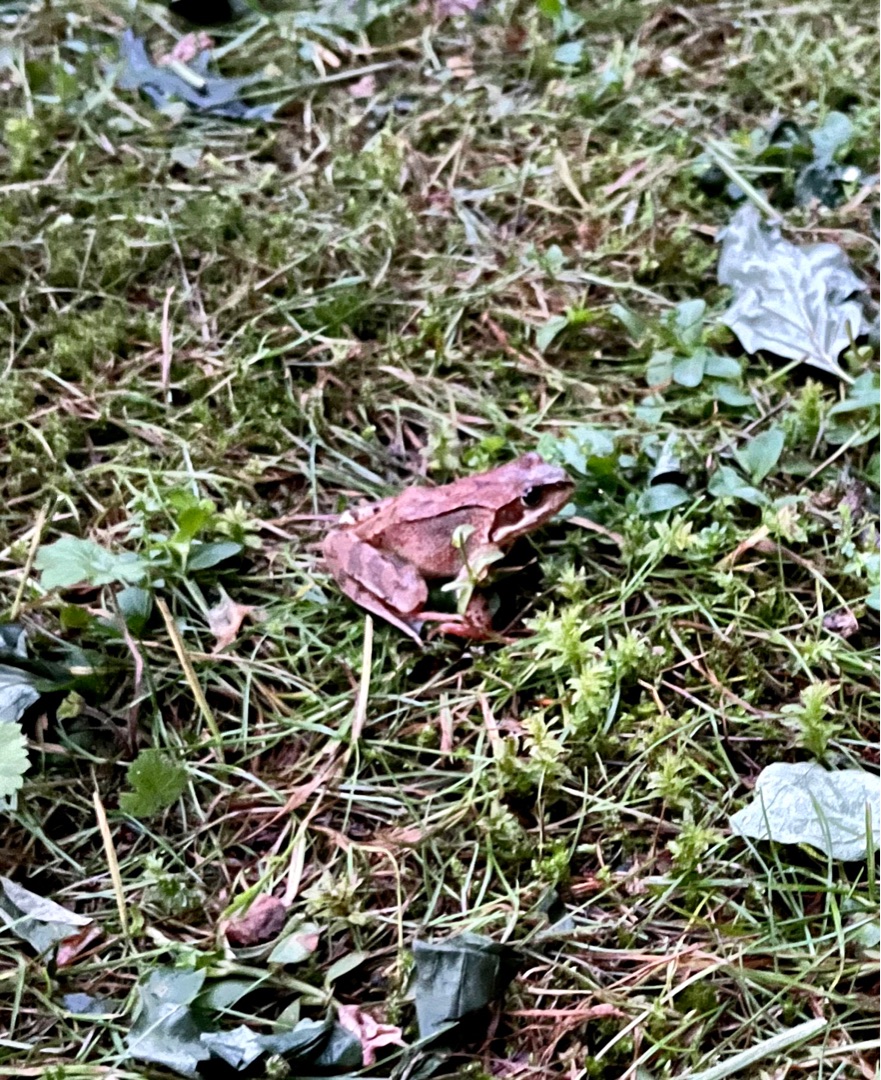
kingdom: Animalia
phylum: Chordata
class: Amphibia
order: Anura
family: Ranidae
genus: Rana
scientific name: Rana temporaria
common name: Butsnudet frø
